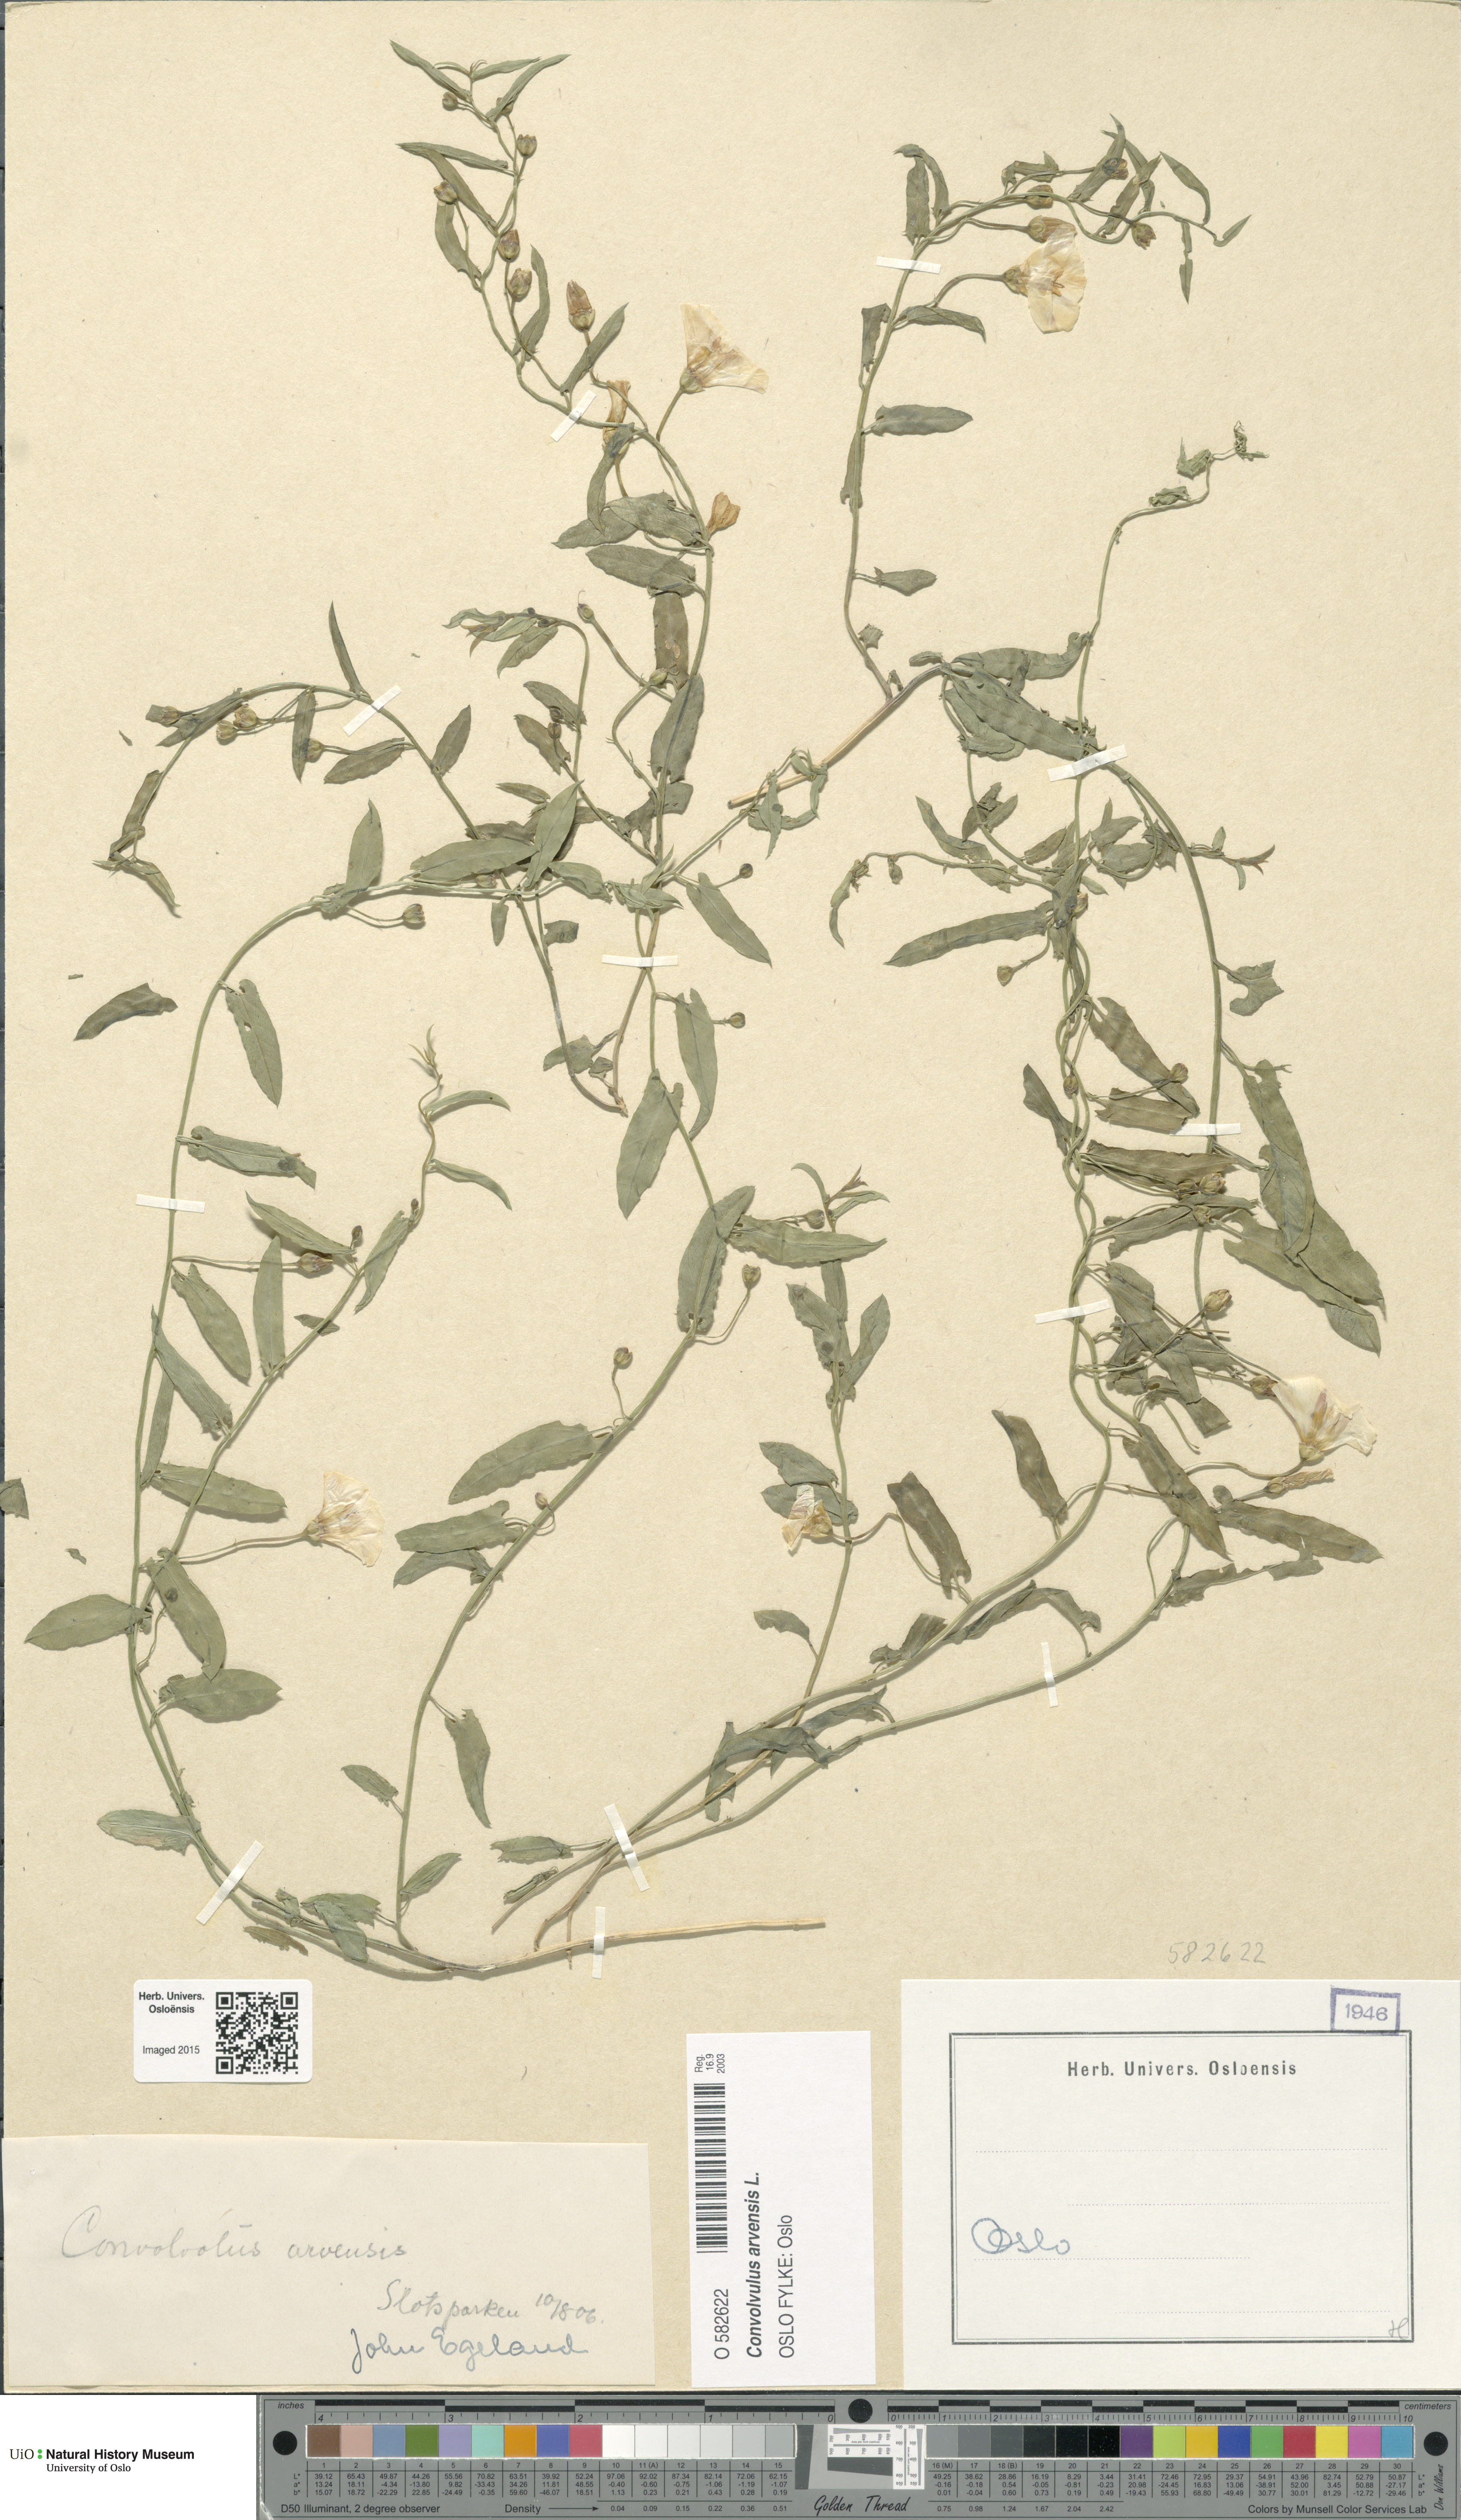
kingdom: Plantae
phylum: Tracheophyta
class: Magnoliopsida
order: Solanales
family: Convolvulaceae
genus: Convolvulus
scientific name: Convolvulus arvensis
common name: Field bindweed
